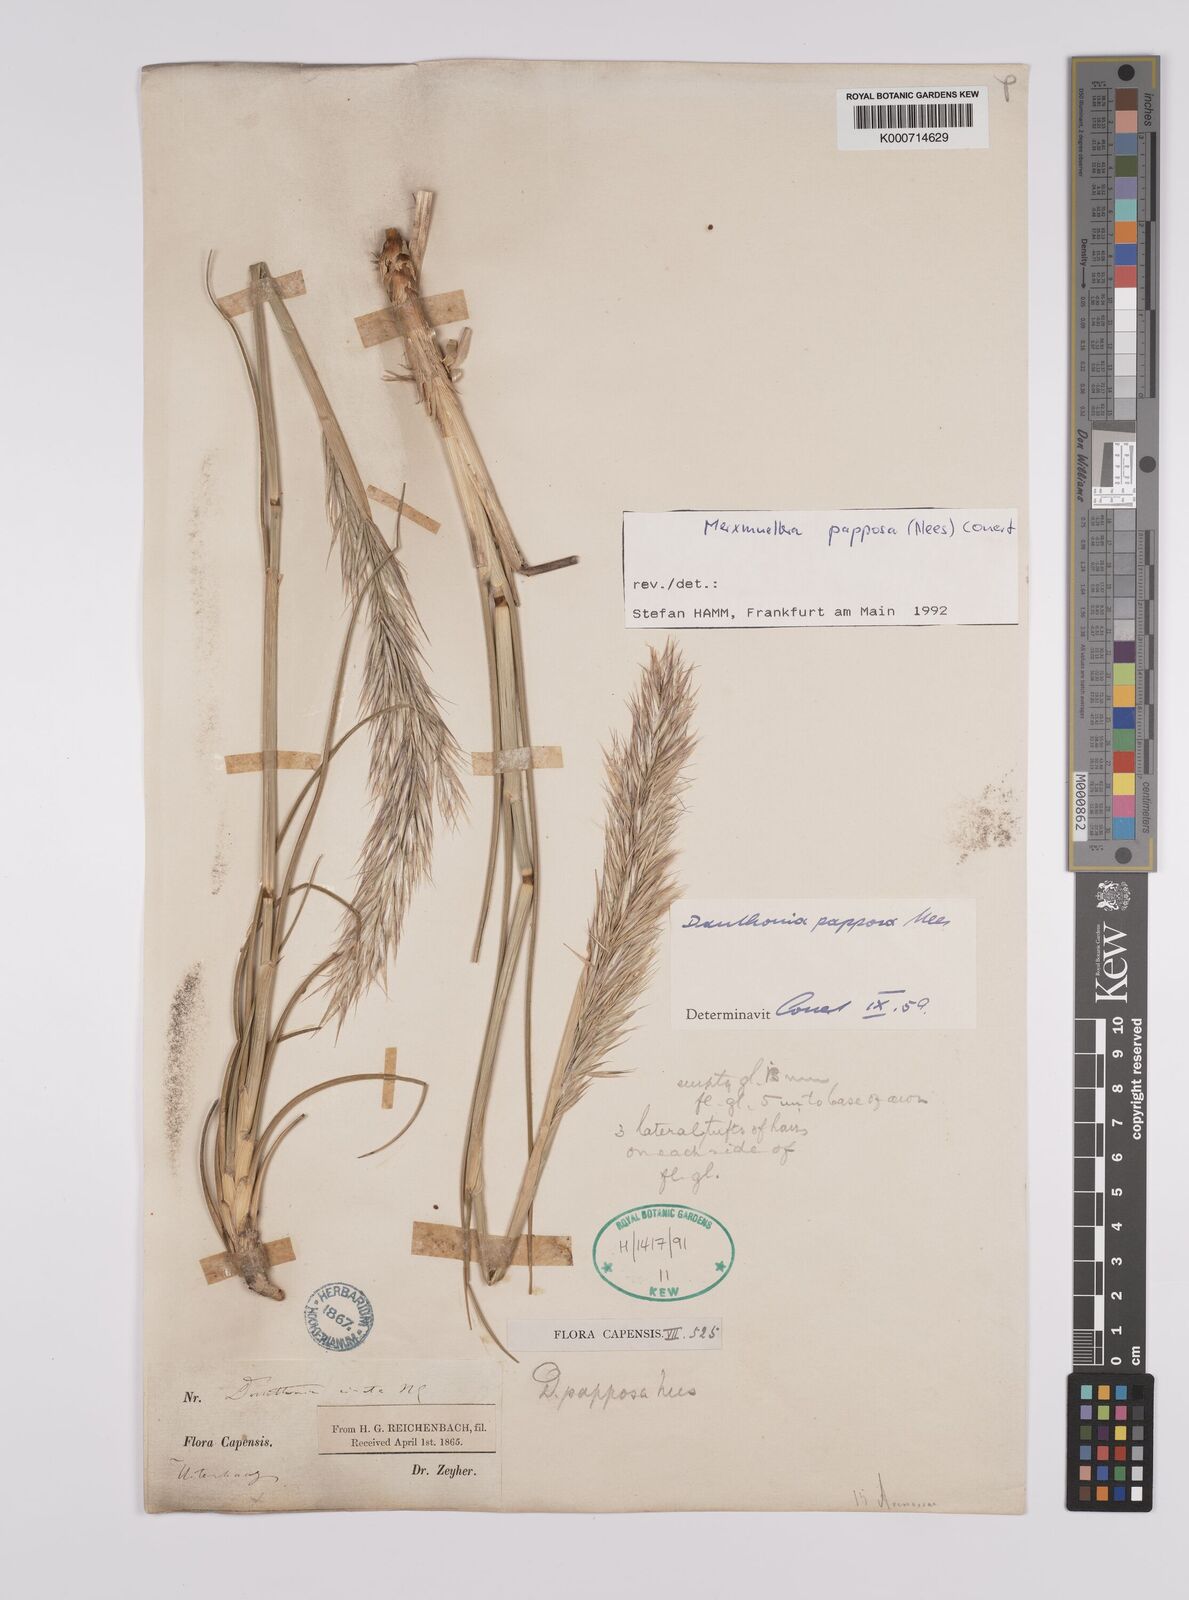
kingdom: Plantae
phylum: Tracheophyta
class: Liliopsida
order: Poales
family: Poaceae
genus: Rytidosperma
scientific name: Rytidosperma
